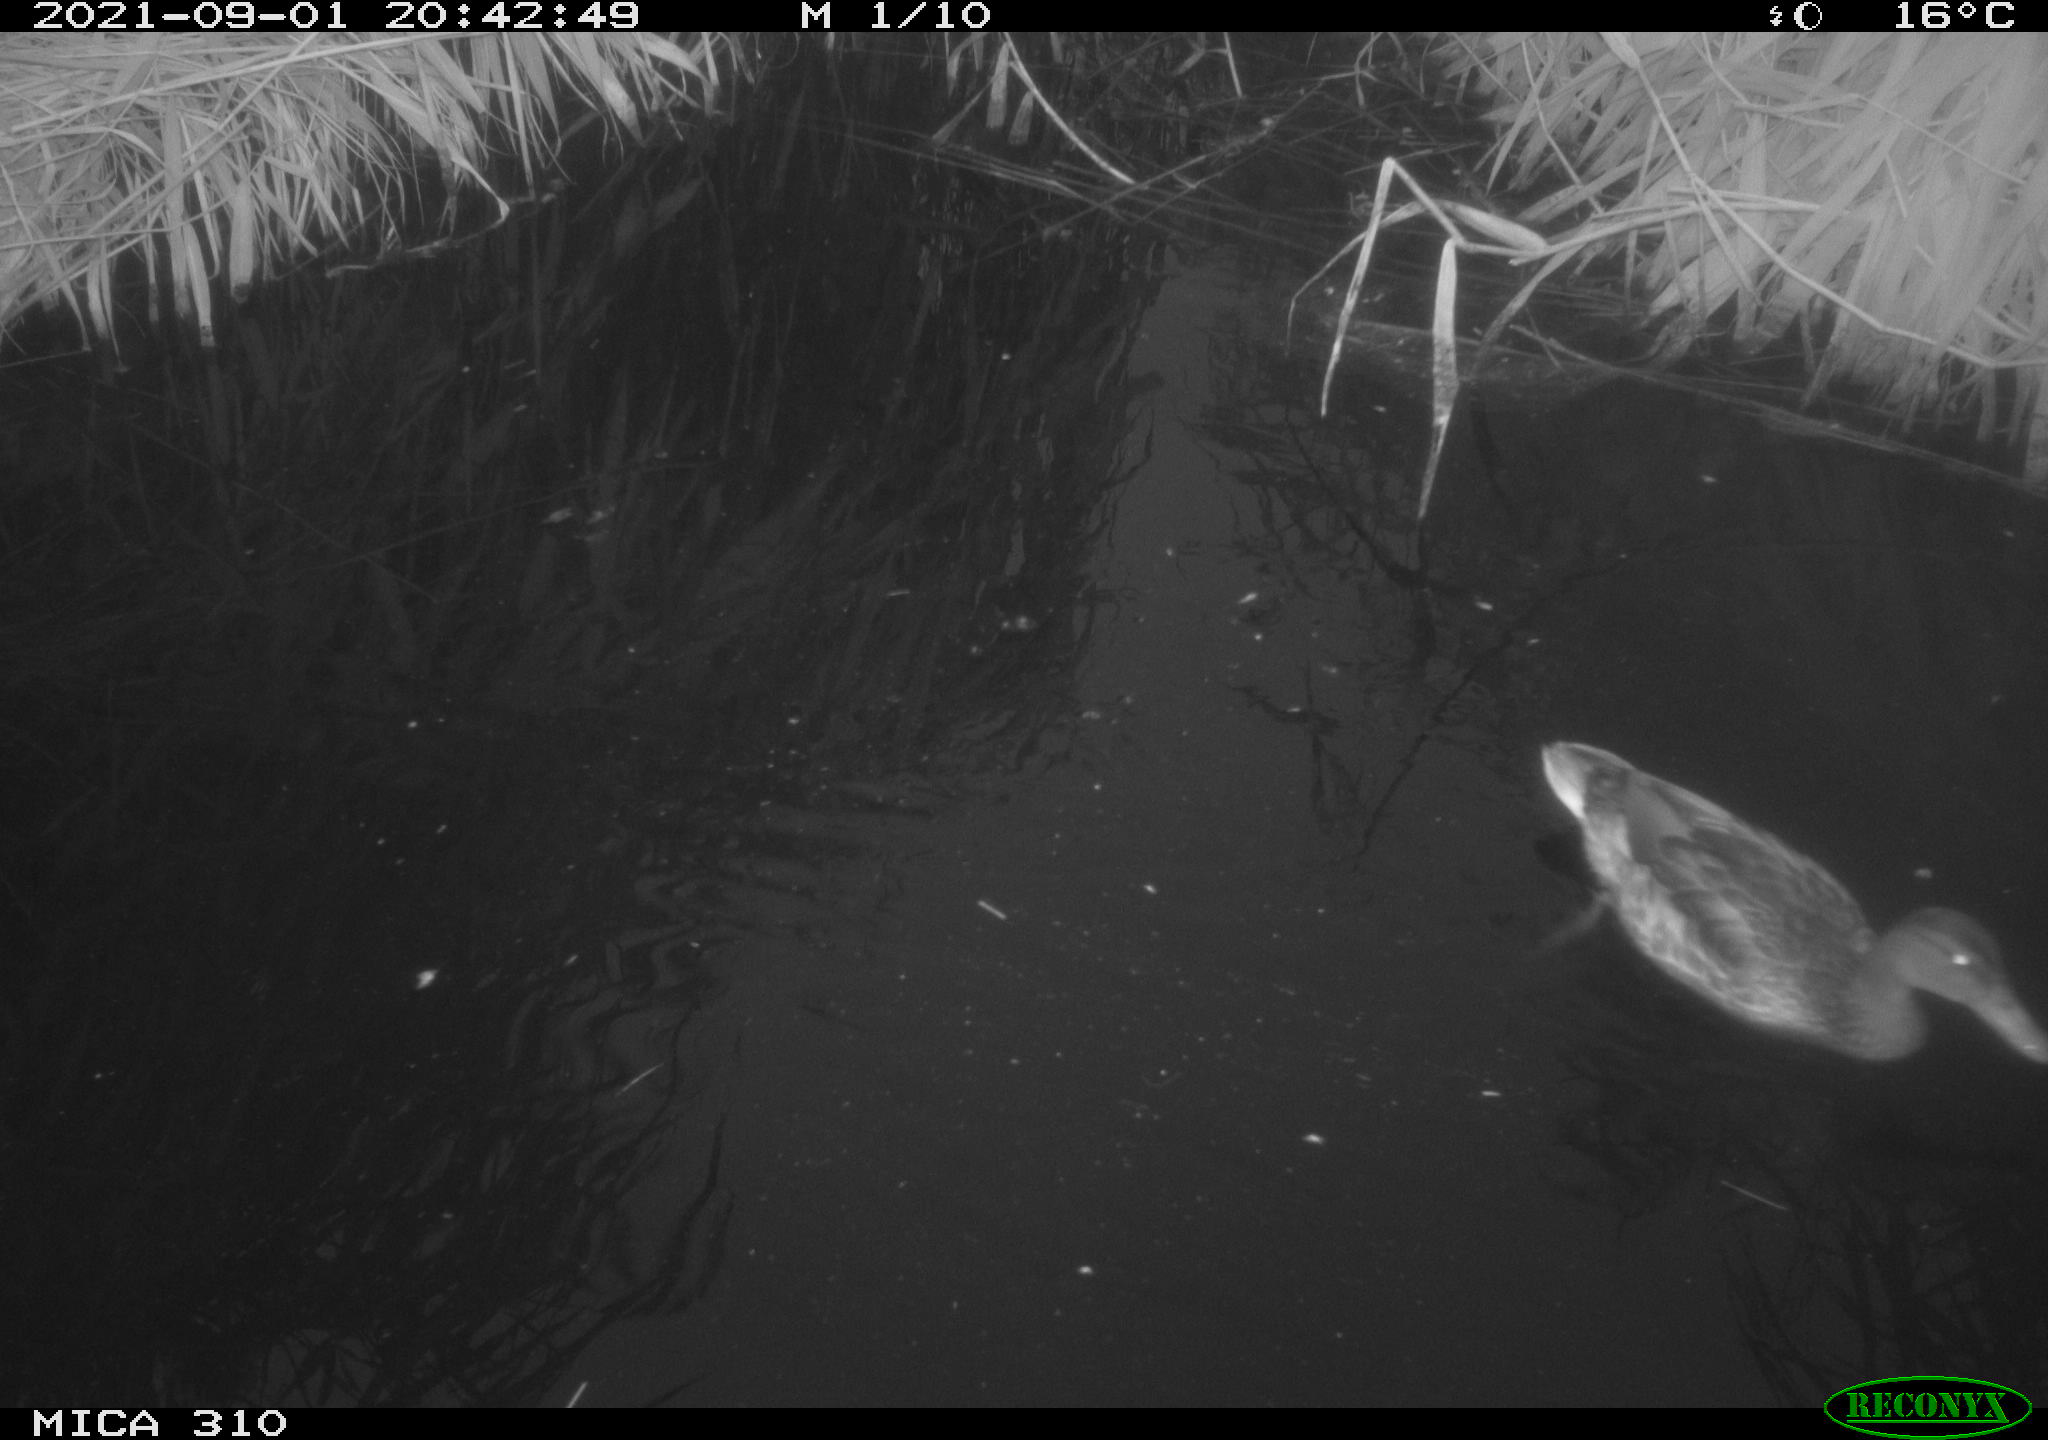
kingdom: Animalia
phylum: Chordata
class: Aves
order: Anseriformes
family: Anatidae
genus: Mareca
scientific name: Mareca strepera
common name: Gadwall
